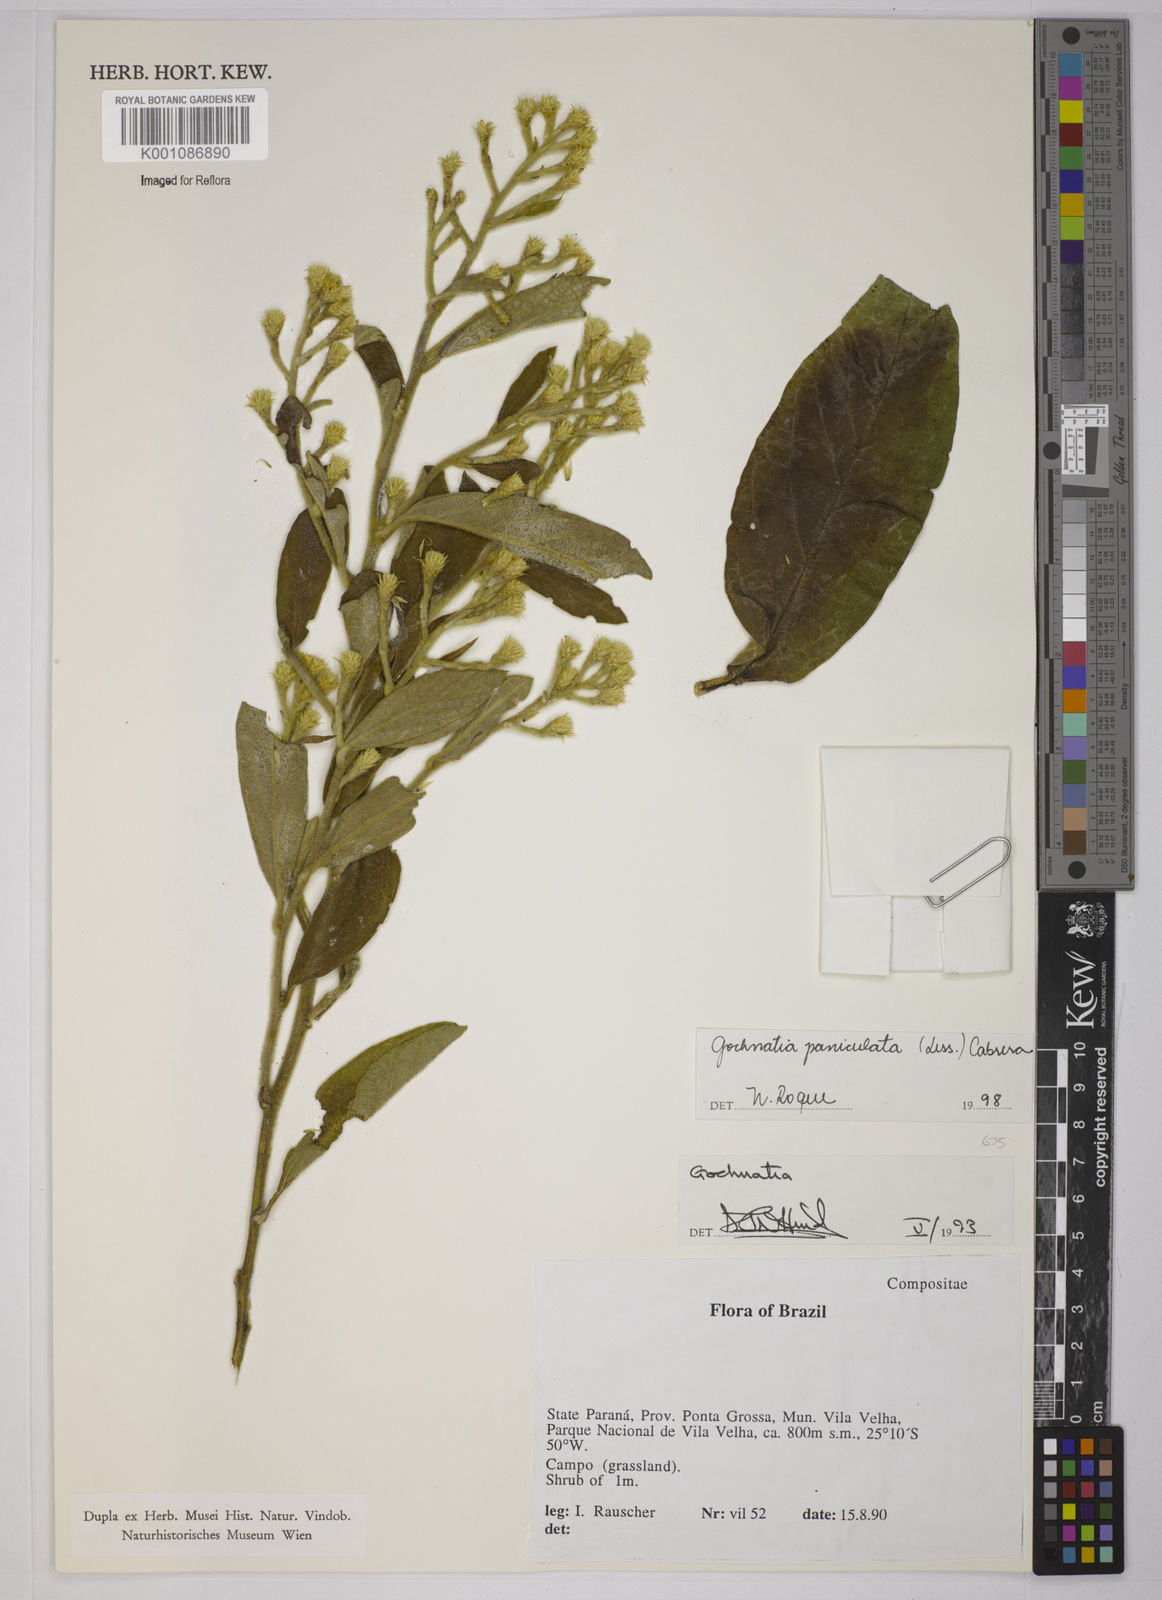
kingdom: Plantae
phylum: Tracheophyta
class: Magnoliopsida
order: Asterales
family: Asteraceae
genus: Moquiniastrum
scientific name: Moquiniastrum paniculatum
